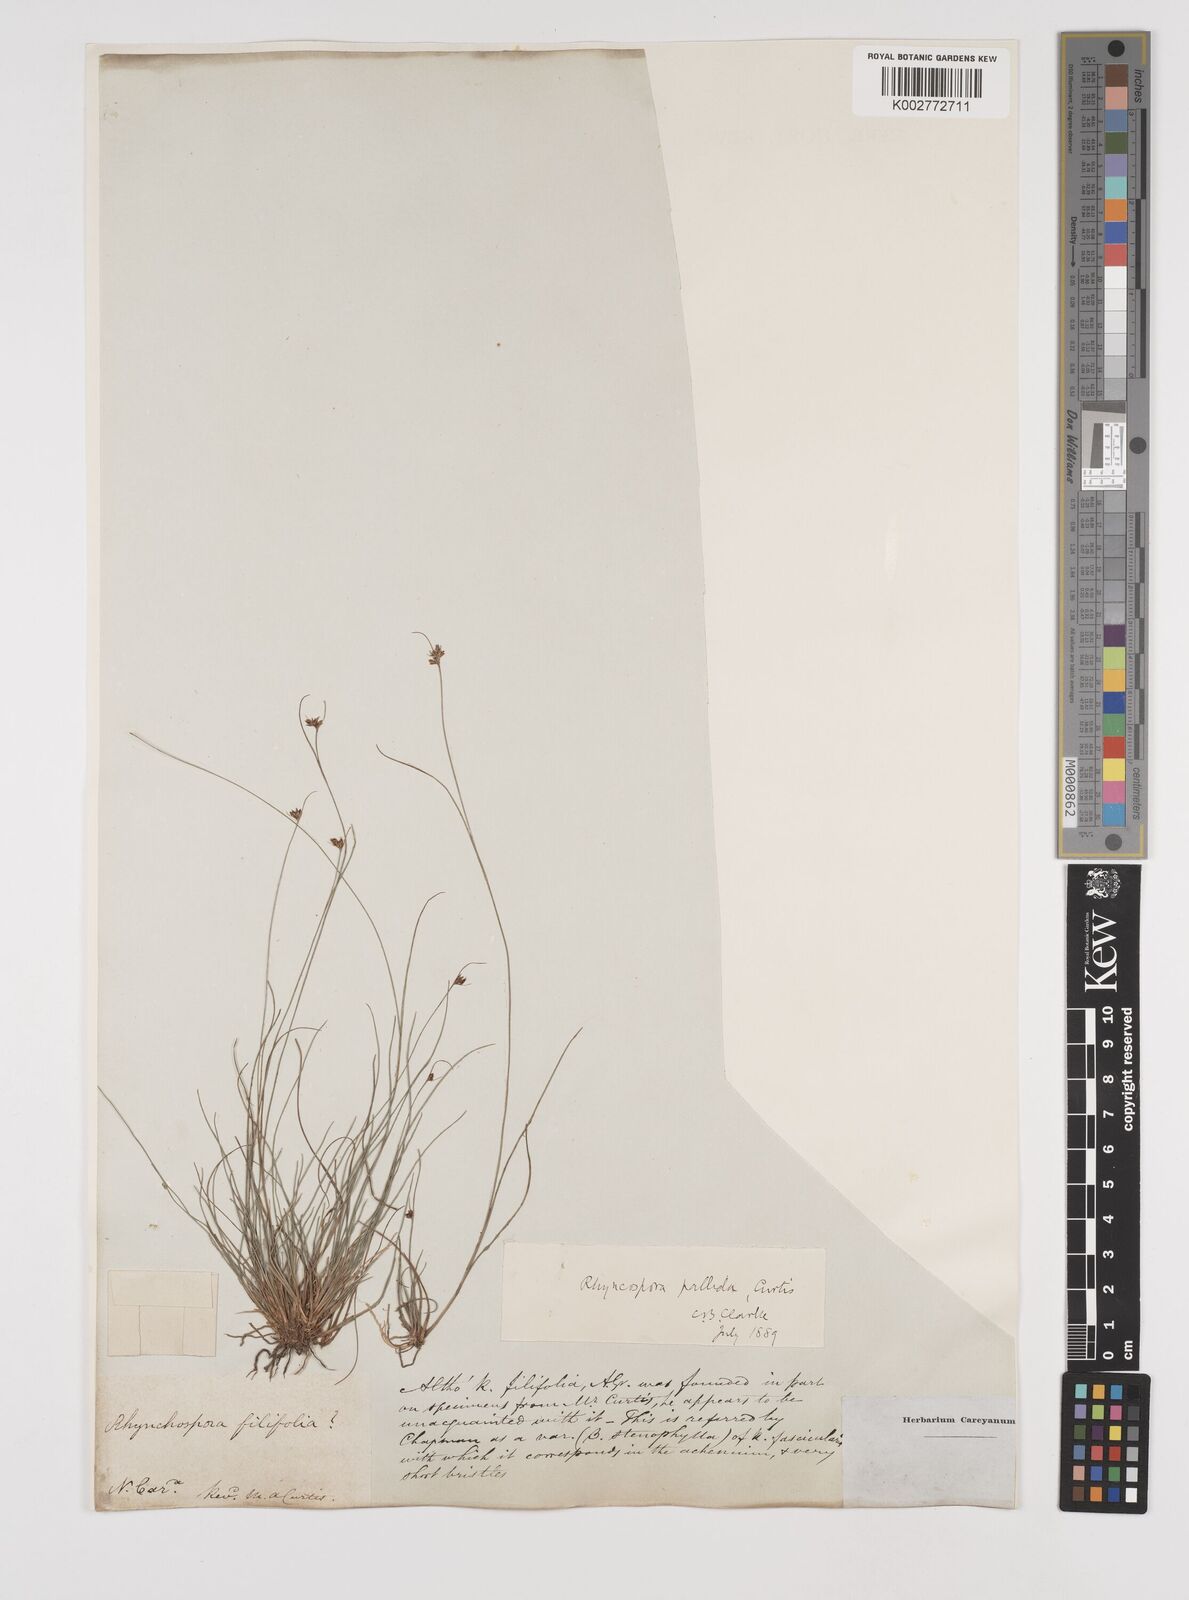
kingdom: Plantae
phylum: Tracheophyta
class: Liliopsida
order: Poales
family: Cyperaceae
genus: Rhynchospora
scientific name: Rhynchospora pallida
